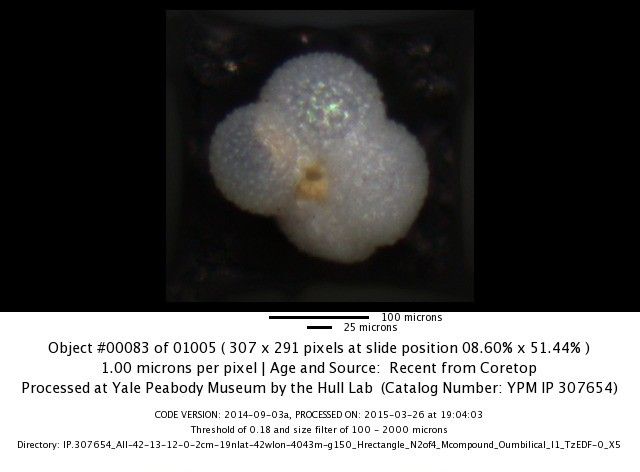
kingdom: Chromista
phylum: Foraminifera
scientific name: Foraminifera
